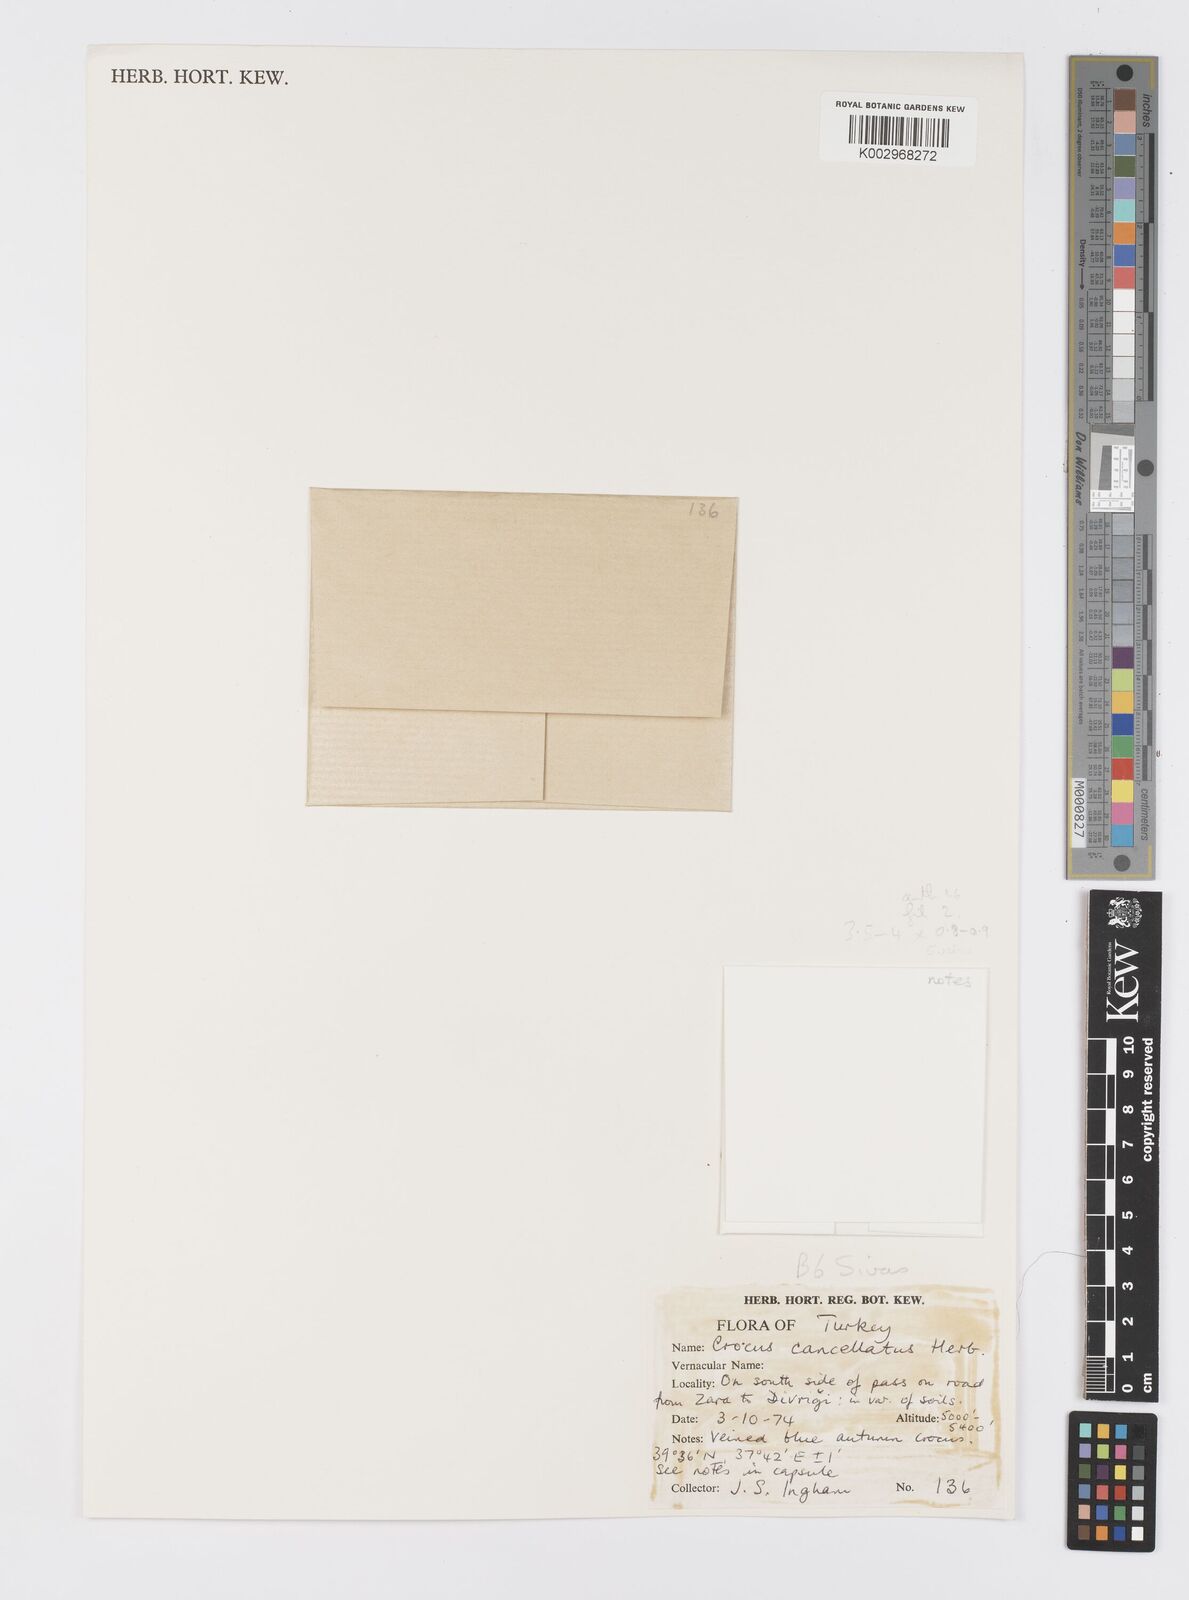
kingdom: Plantae
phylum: Tracheophyta
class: Liliopsida
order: Asparagales
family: Iridaceae
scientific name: Iridaceae
